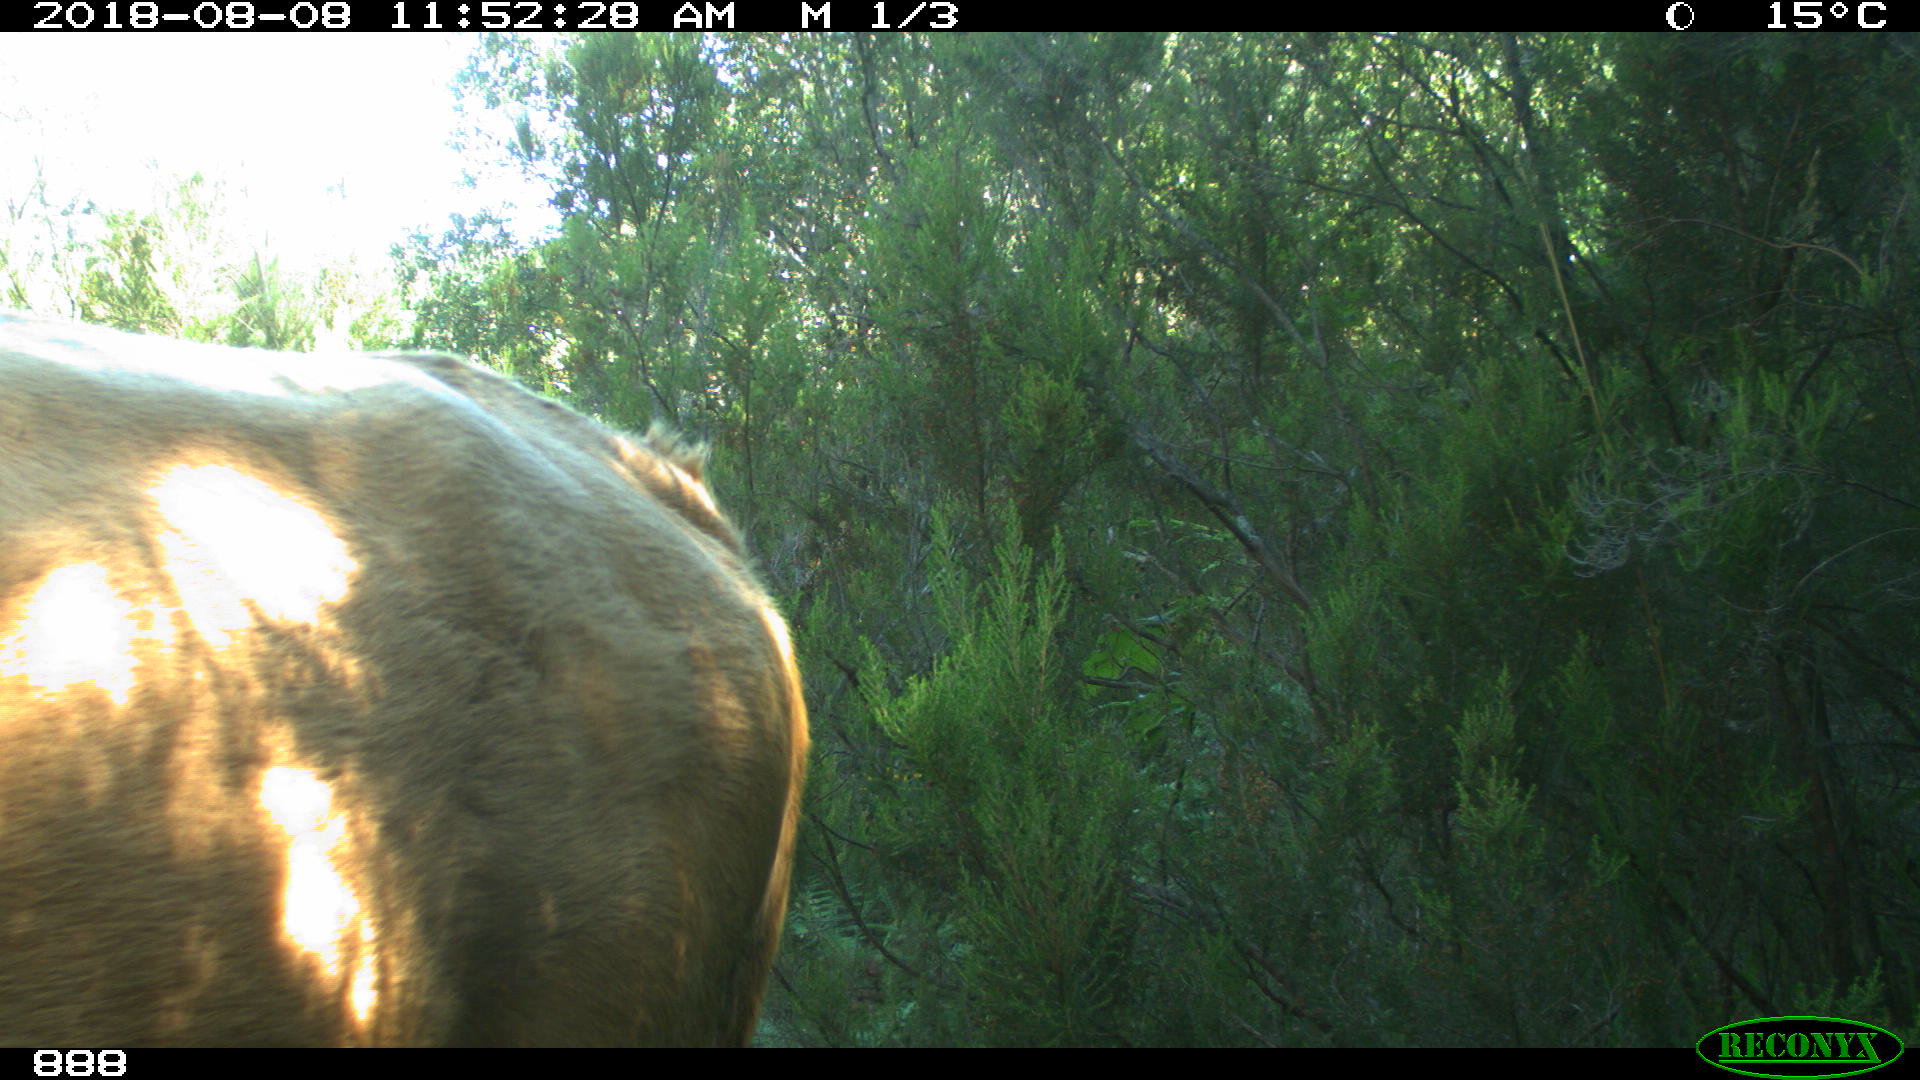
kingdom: Animalia
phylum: Chordata
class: Mammalia
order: Artiodactyla
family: Bovidae
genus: Bos
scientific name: Bos taurus
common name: Domesticated cattle
